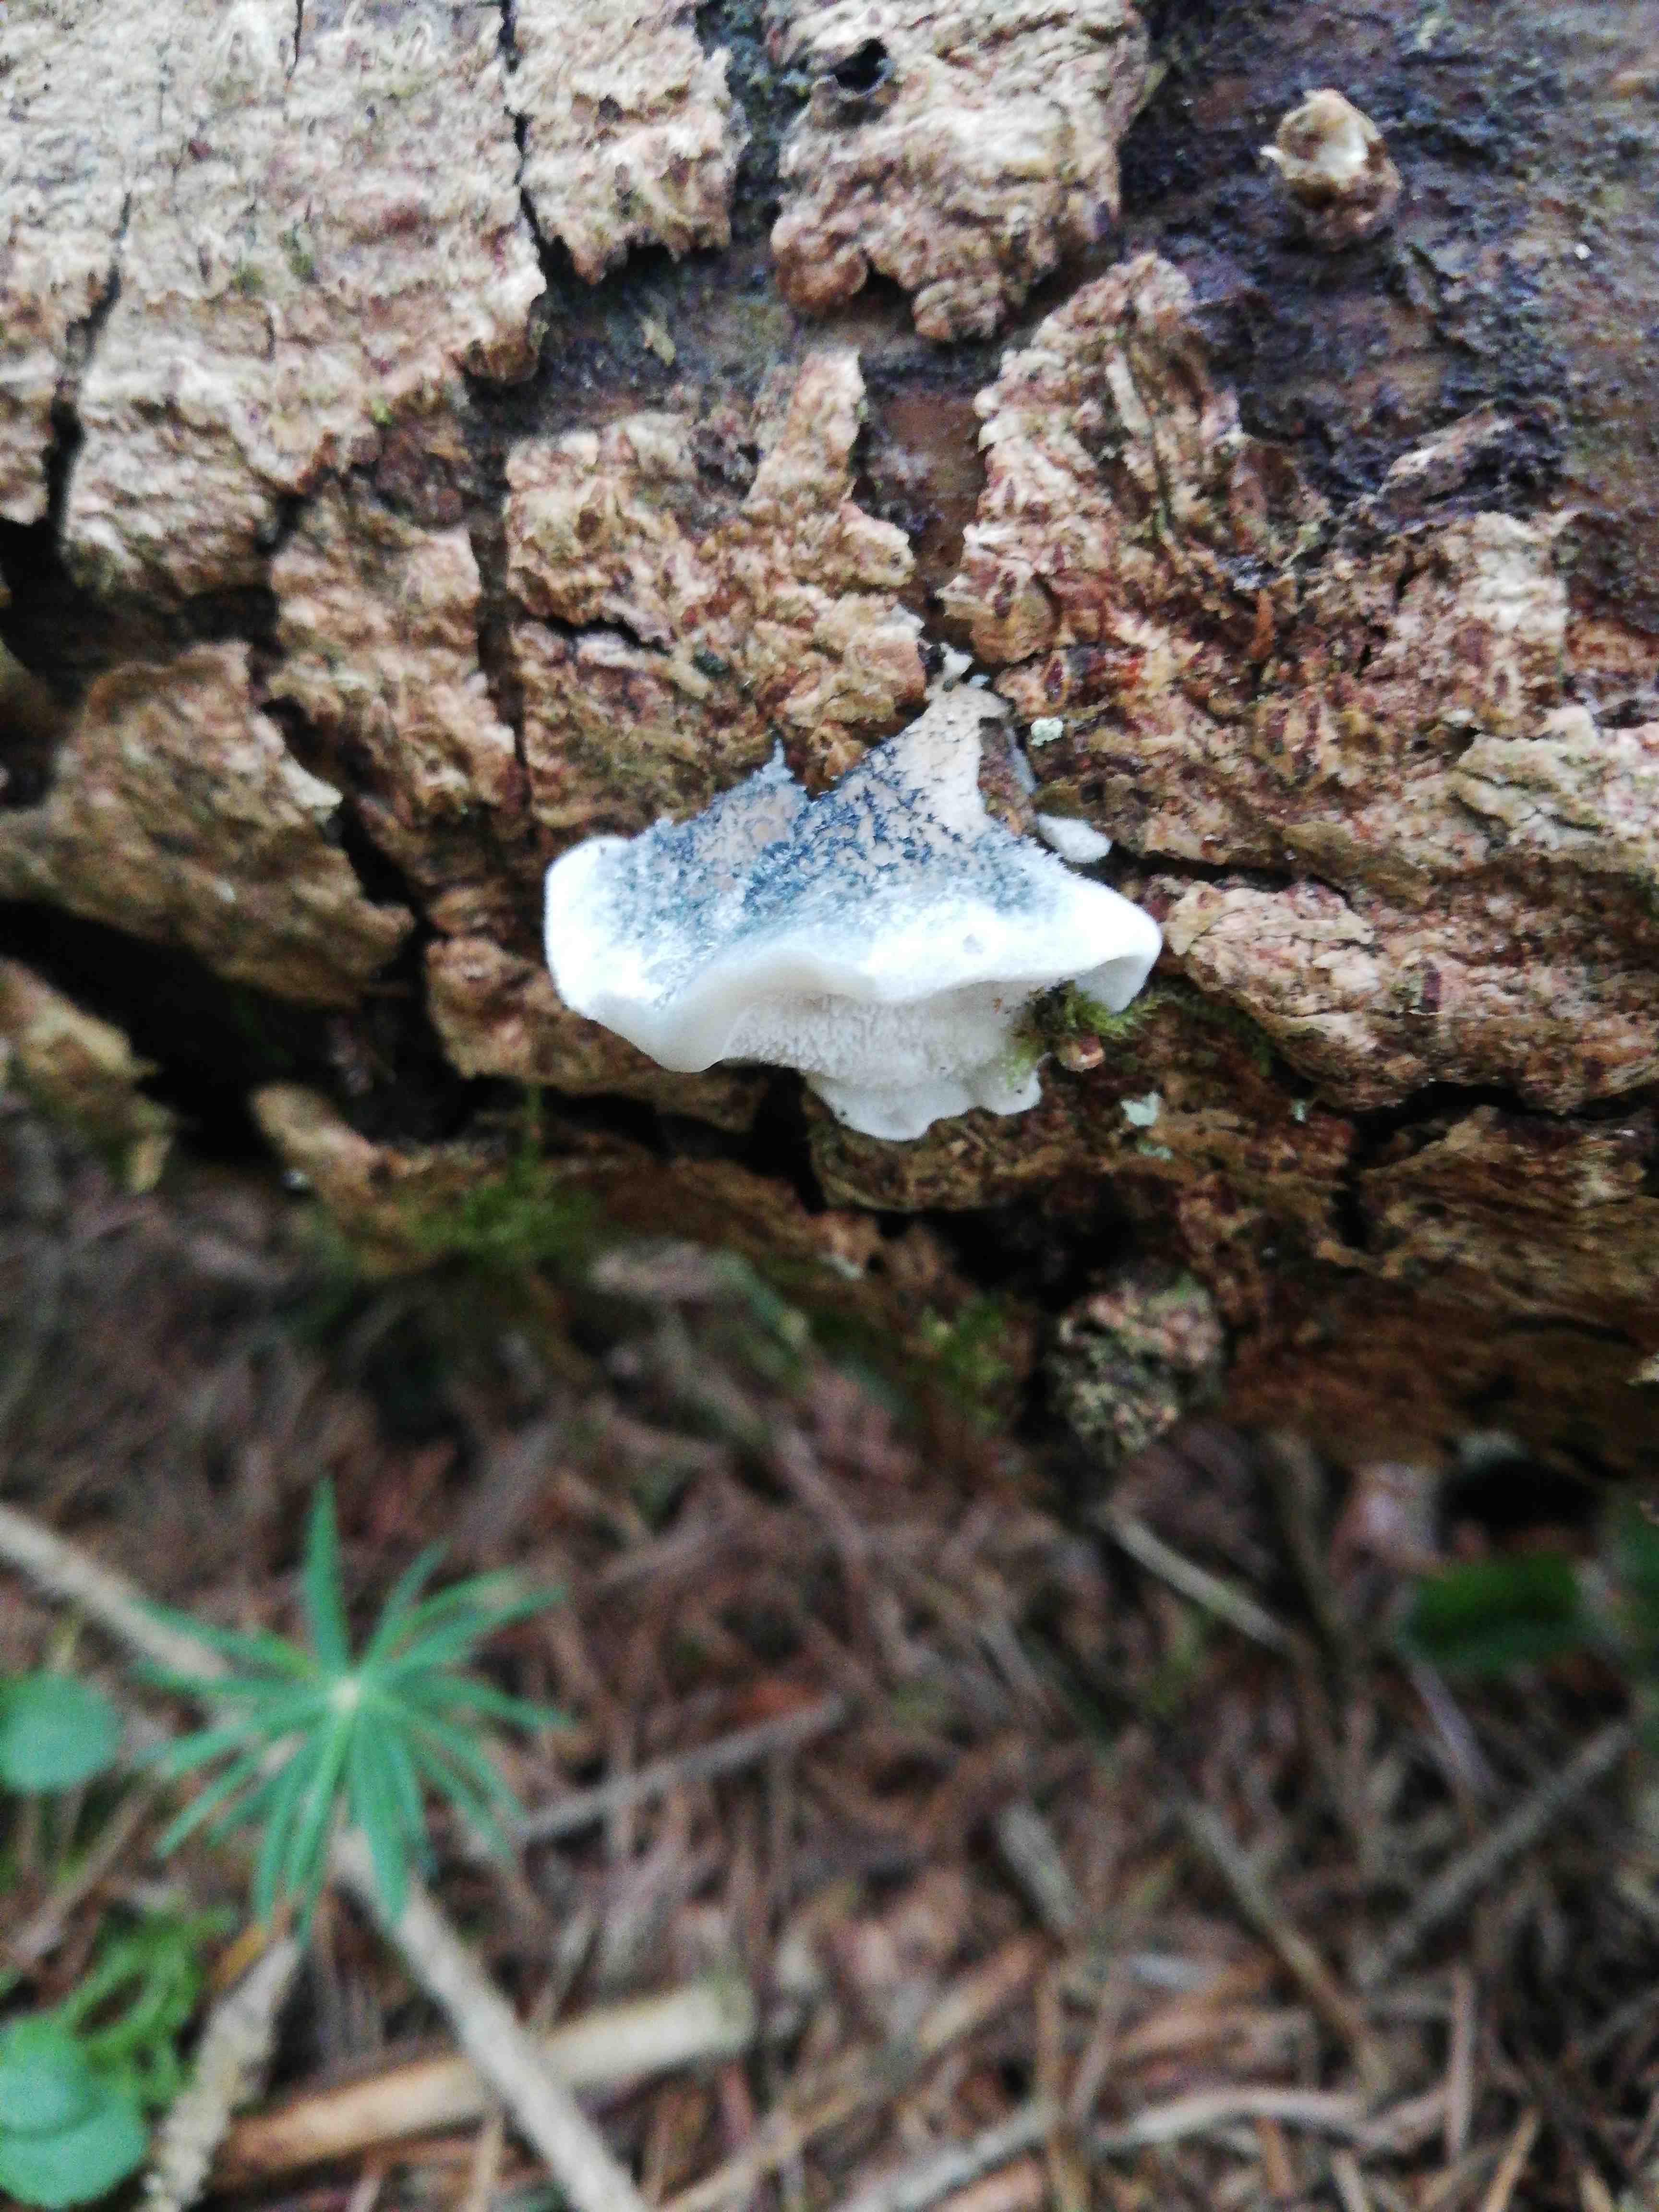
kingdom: Fungi
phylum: Basidiomycota
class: Agaricomycetes
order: Polyporales
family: Polyporaceae
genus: Cyanosporus
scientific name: Cyanosporus caesius
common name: blålig kødporesvamp
